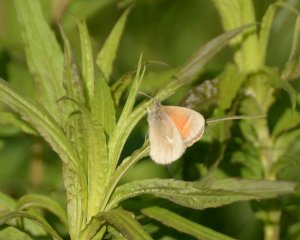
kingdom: Animalia
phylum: Arthropoda
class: Insecta
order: Lepidoptera
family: Nymphalidae
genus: Coenonympha
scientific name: Coenonympha tullia
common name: Large Heath
